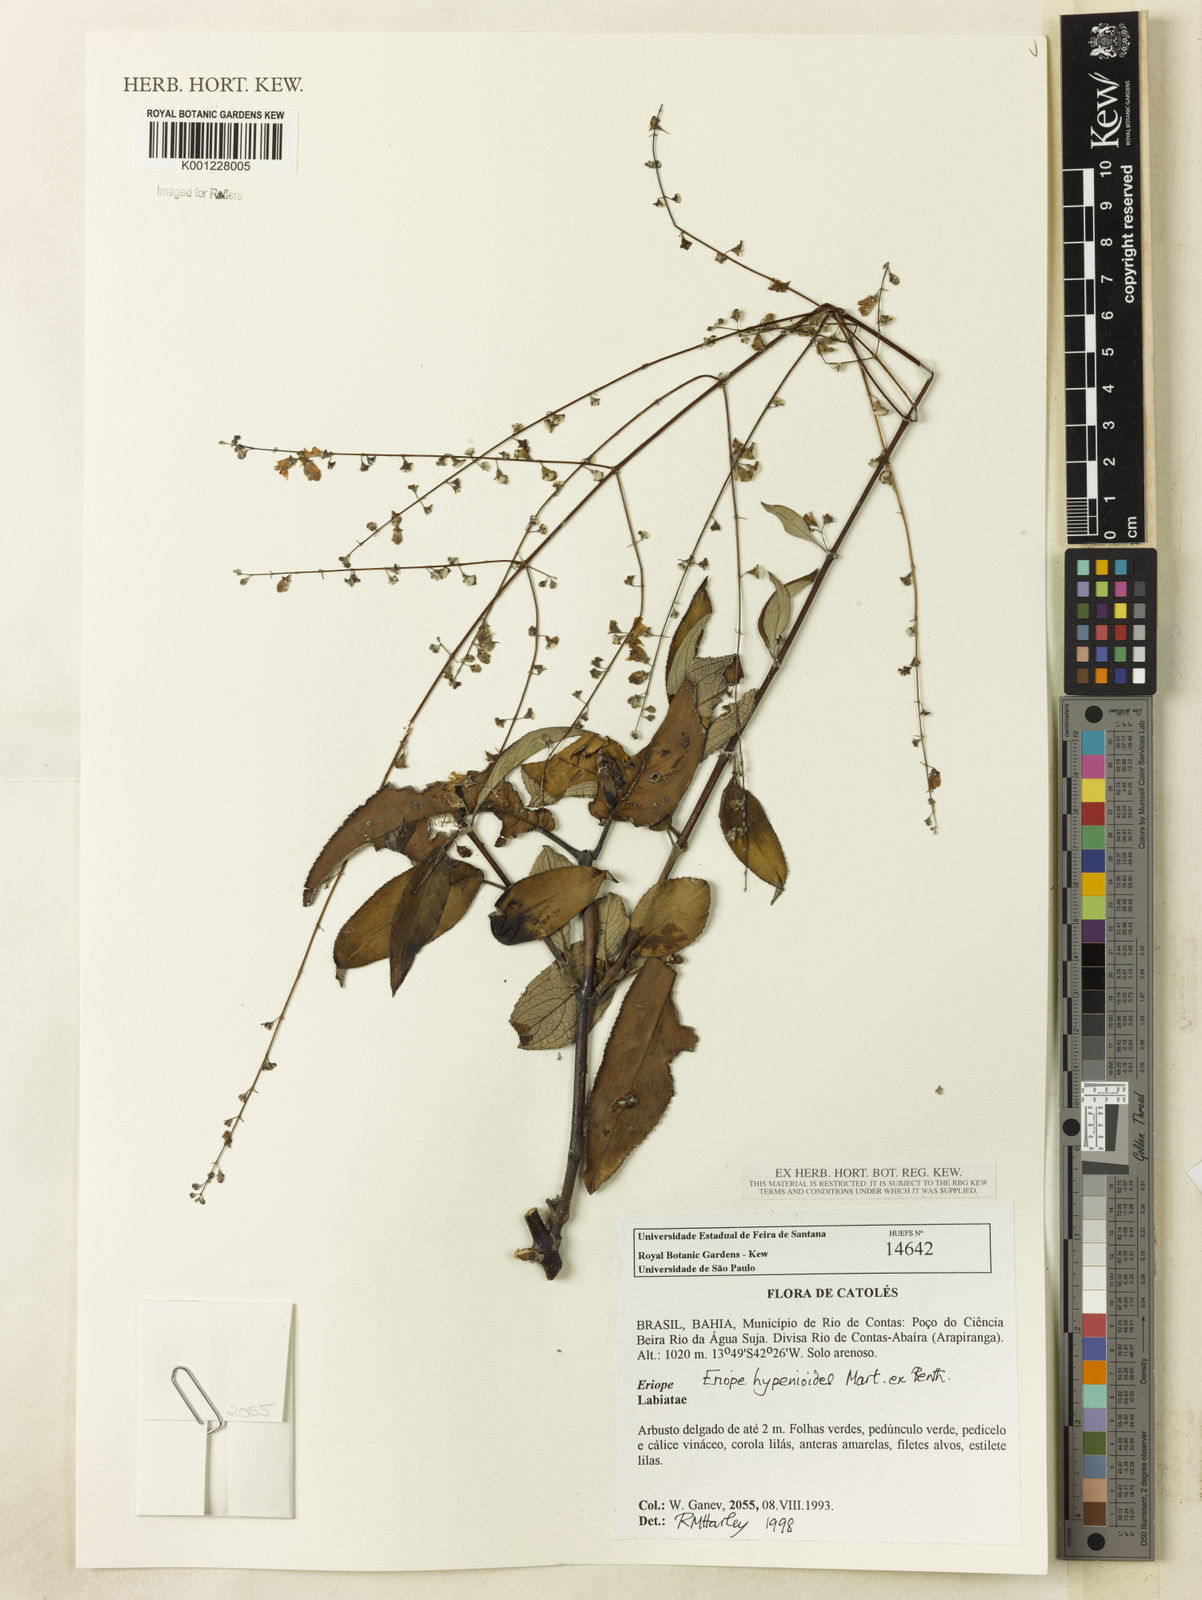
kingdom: Plantae
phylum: Tracheophyta
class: Magnoliopsida
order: Lamiales
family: Lamiaceae
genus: Eriope
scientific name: Eriope hypenioides
